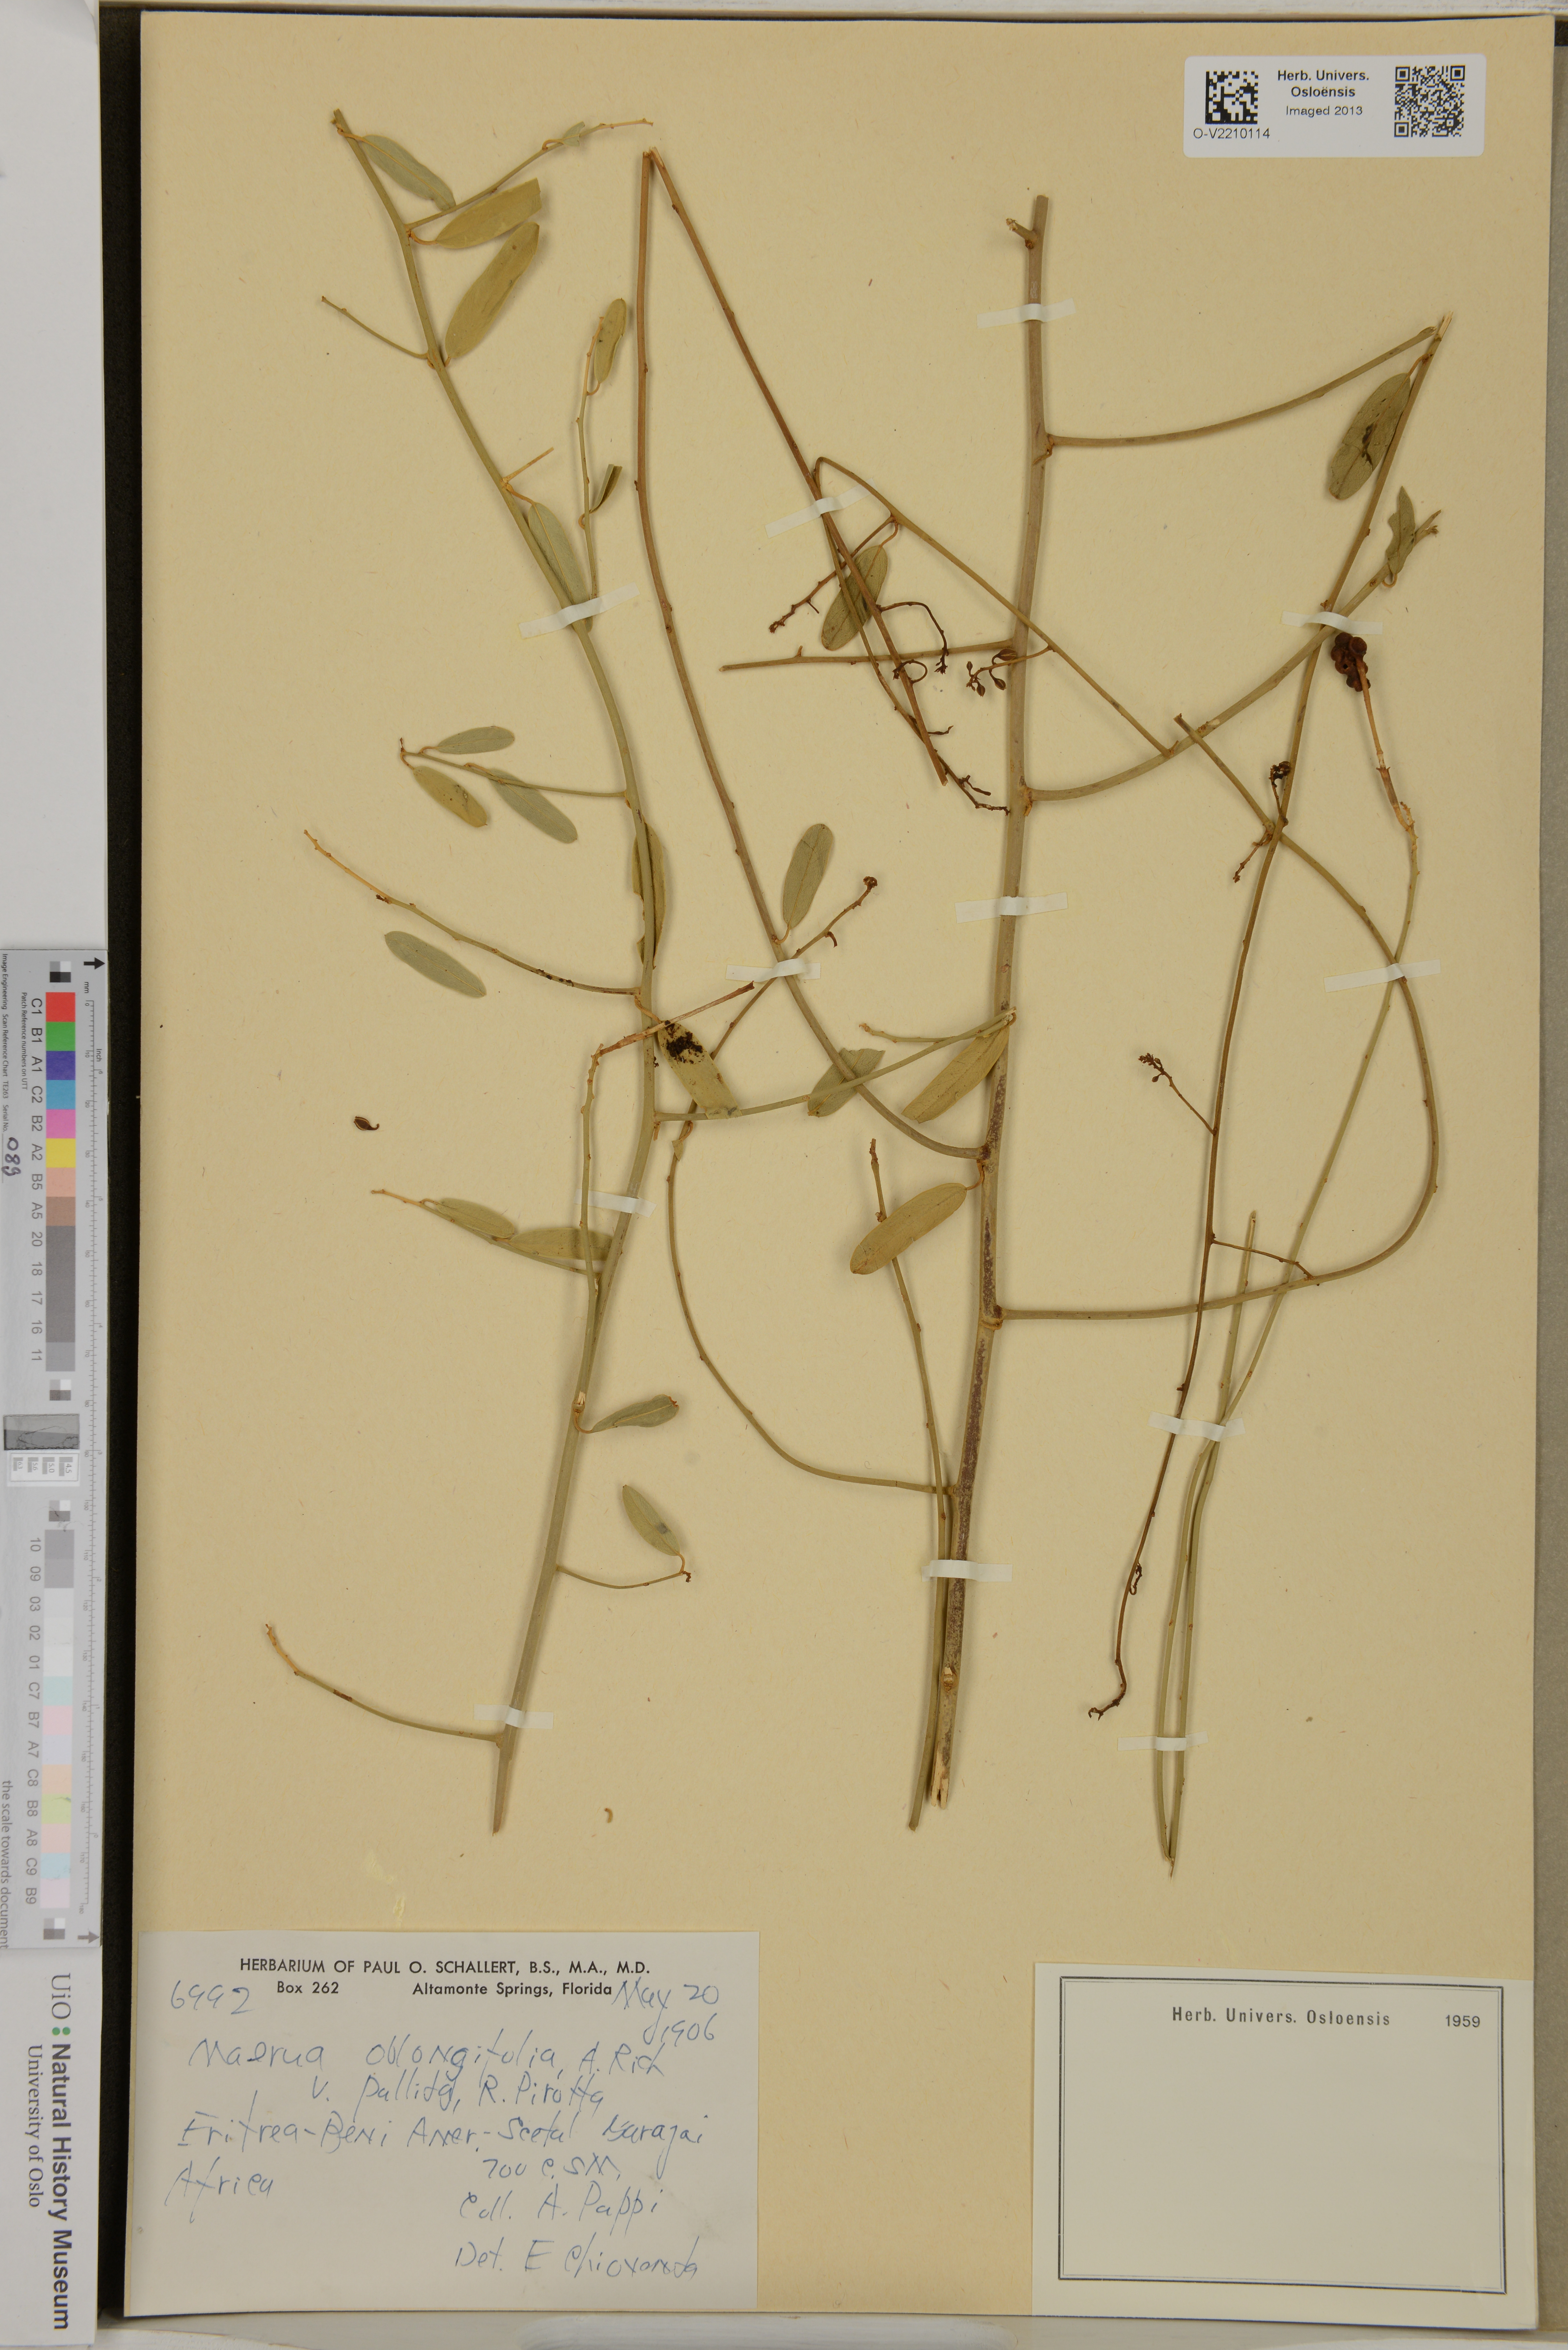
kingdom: Plantae
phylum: Tracheophyta
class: Magnoliopsida
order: Brassicales
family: Capparaceae
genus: Maerua
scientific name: Maerua oblongifolia
